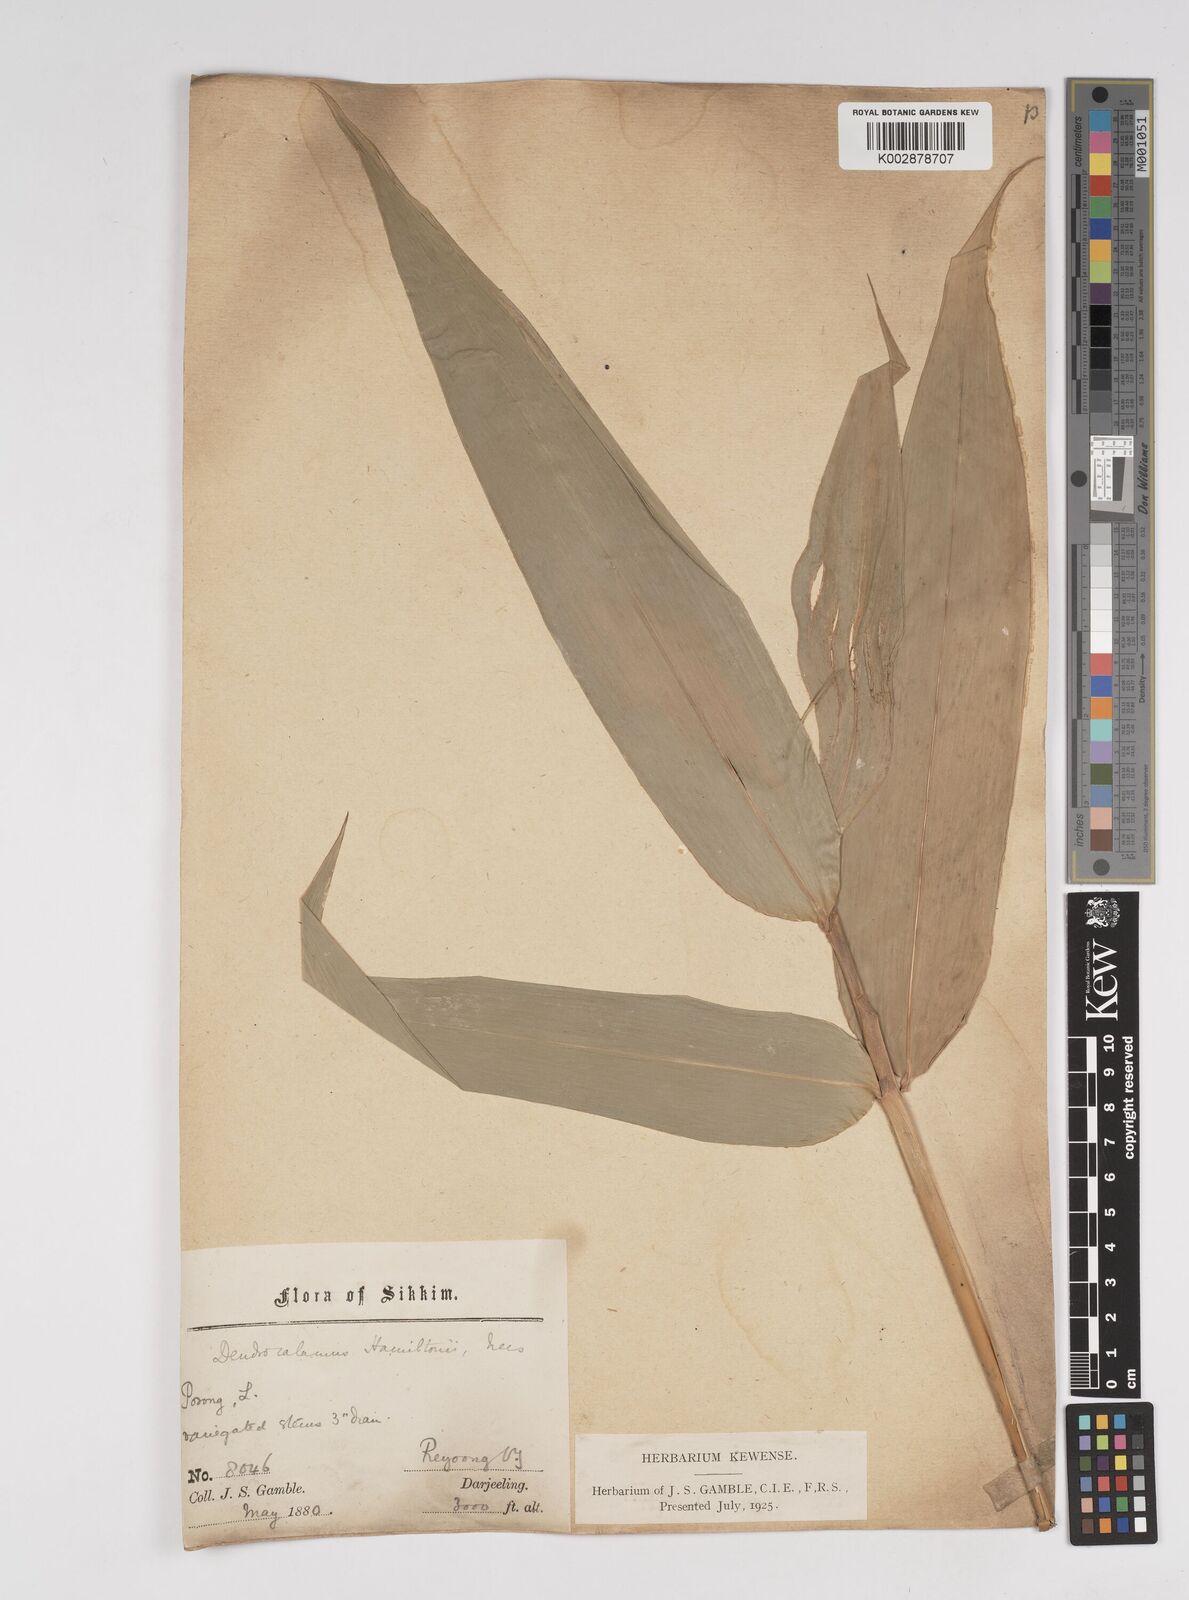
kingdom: Plantae
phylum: Tracheophyta
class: Liliopsida
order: Poales
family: Poaceae
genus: Dendrocalamus
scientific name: Dendrocalamus hamiltonii
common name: Tama bamboo
